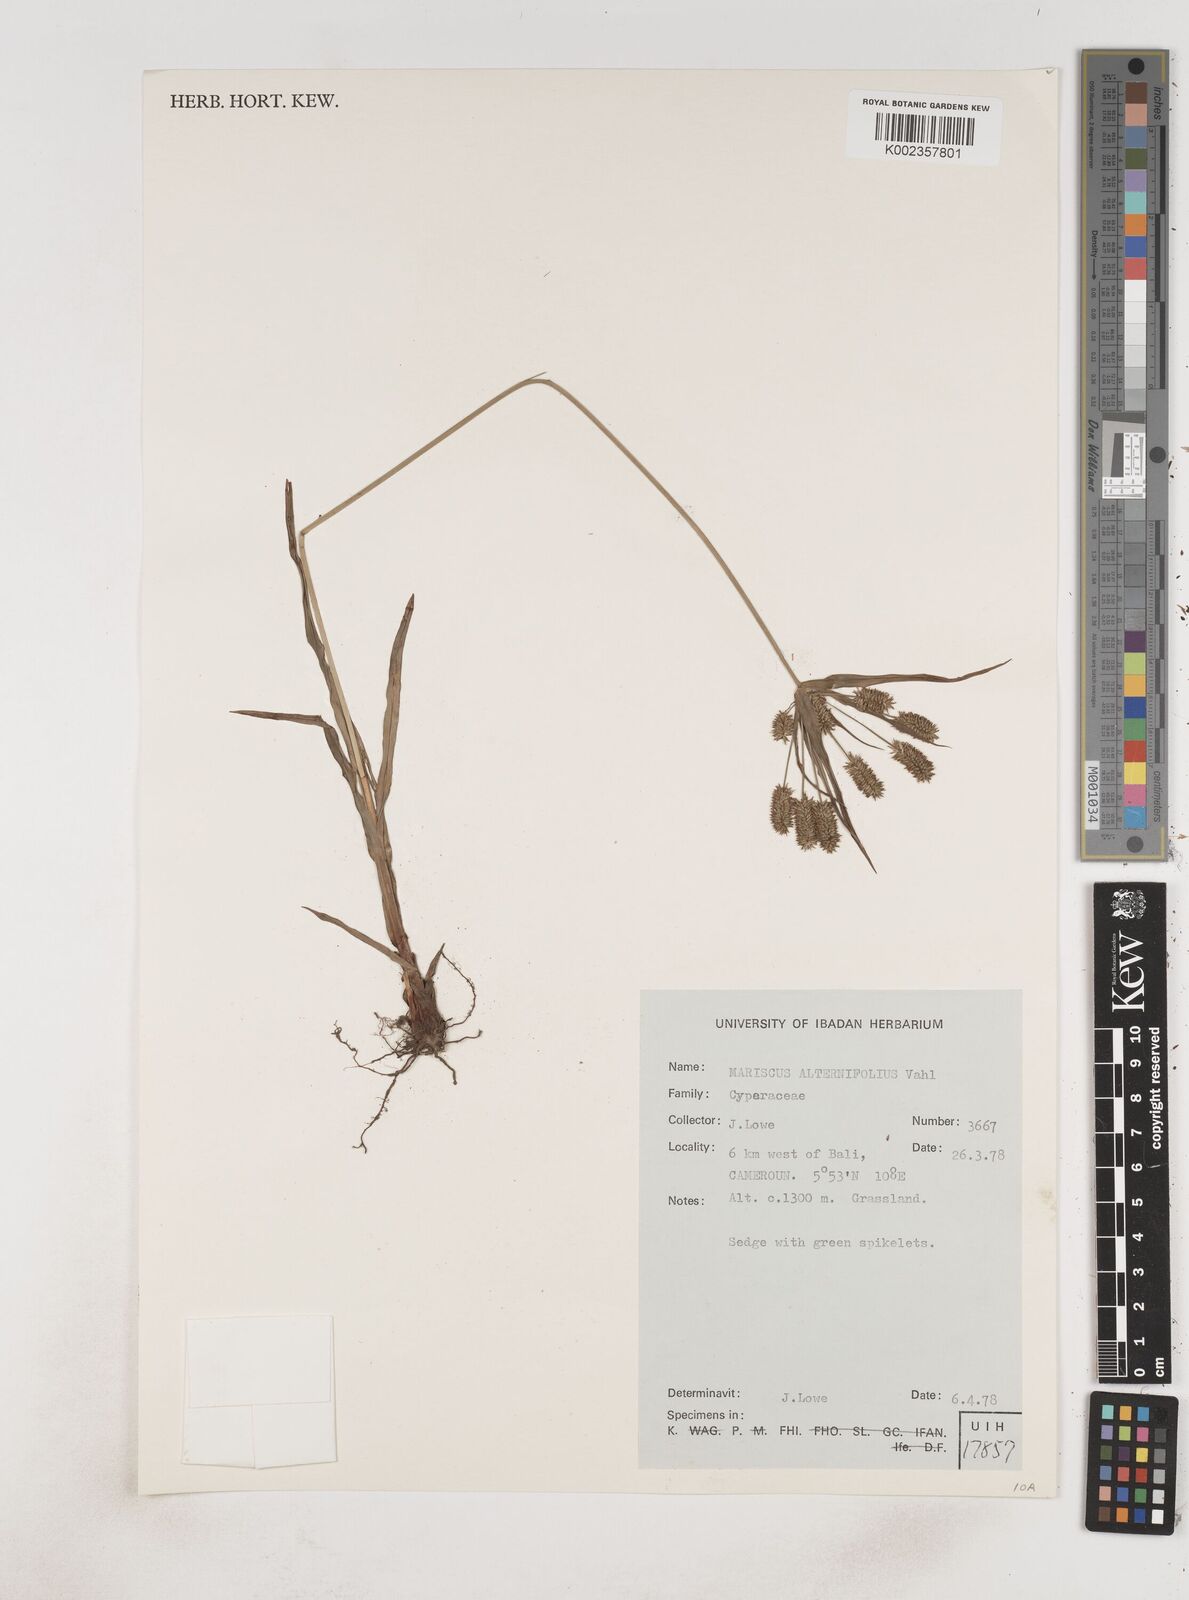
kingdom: Plantae
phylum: Tracheophyta
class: Liliopsida
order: Poales
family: Cyperaceae
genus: Cyperus
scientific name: Cyperus alternifolius
